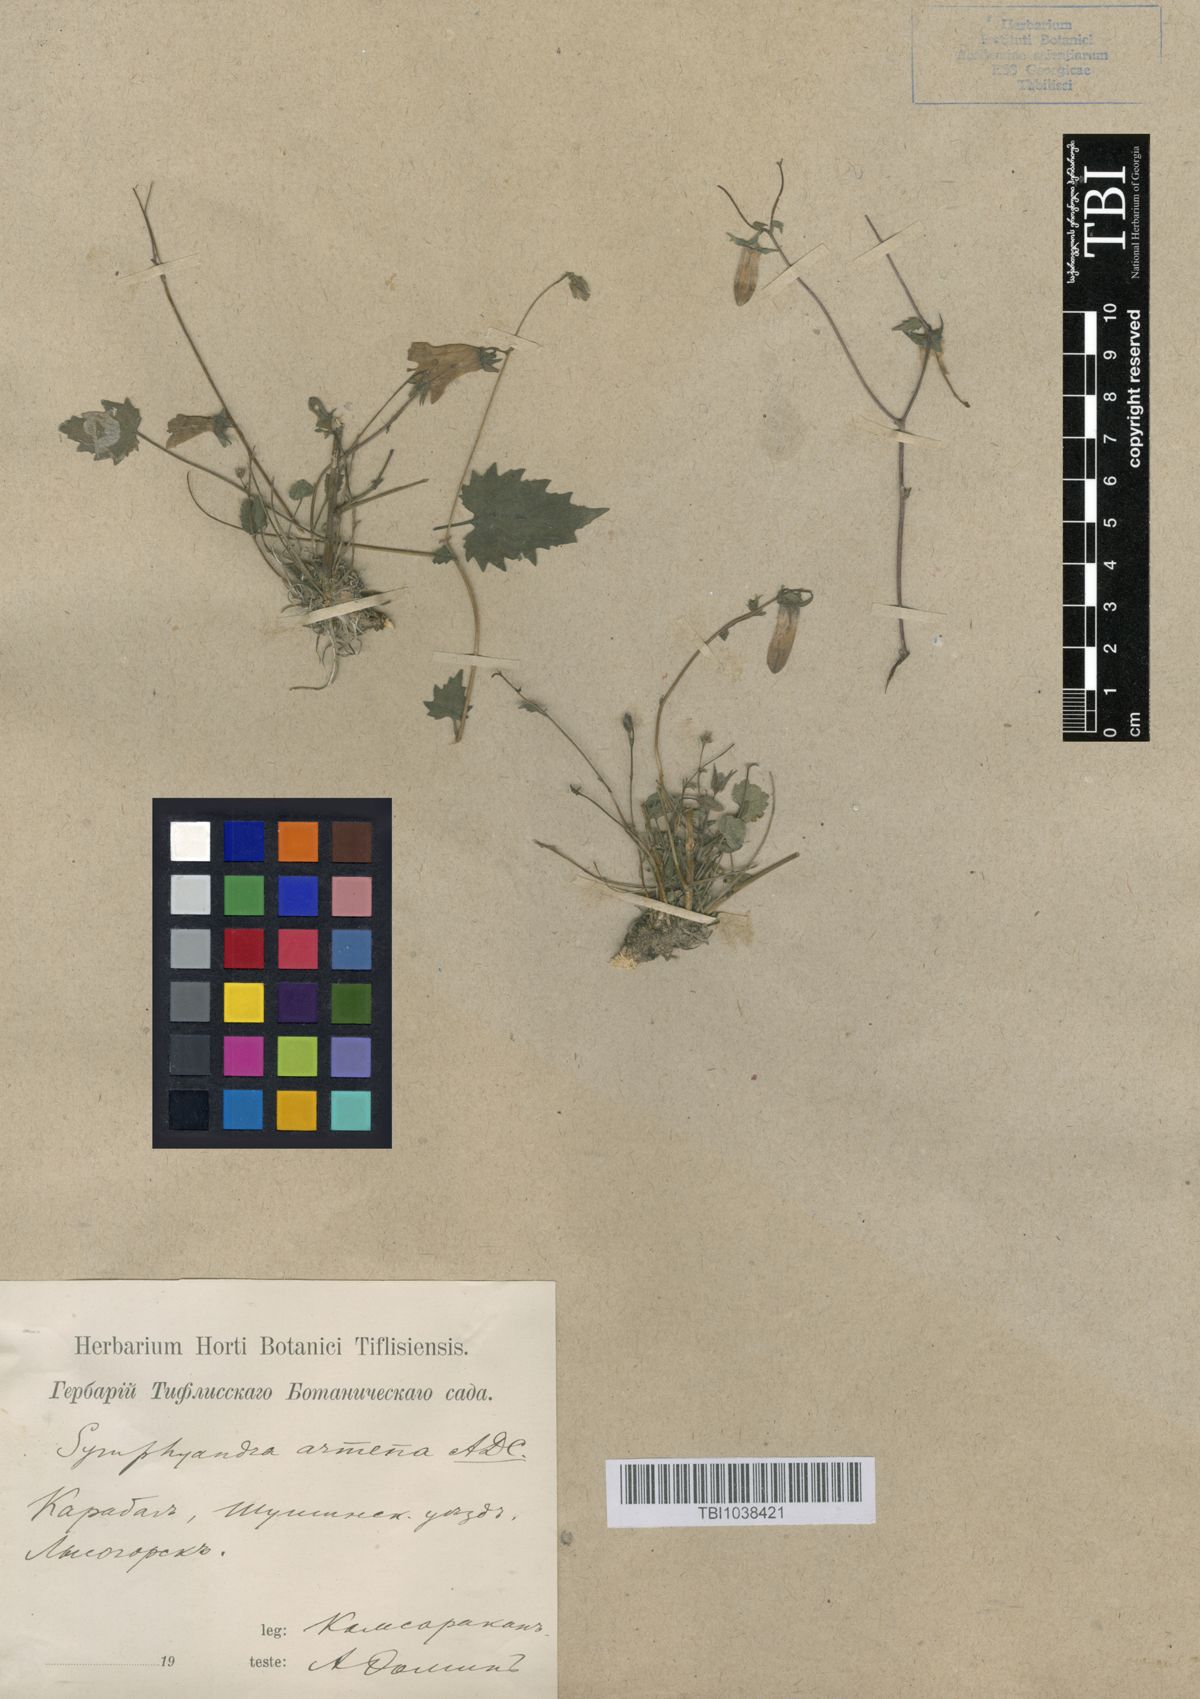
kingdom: Plantae
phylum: Tracheophyta
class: Magnoliopsida
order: Asterales
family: Campanulaceae
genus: Campanula
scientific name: Campanula armena
